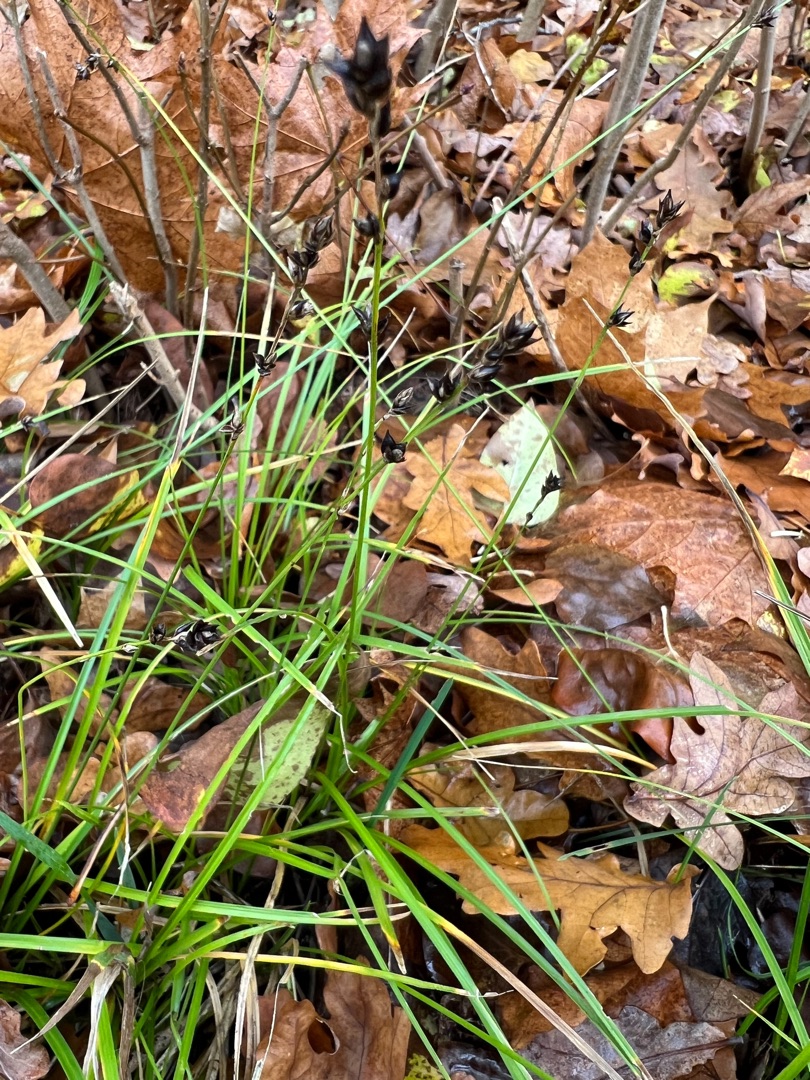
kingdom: Plantae
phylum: Tracheophyta
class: Liliopsida
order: Poales
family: Cyperaceae
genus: Carex
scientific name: Carex leersii
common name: Mellembrudt star (underart)
